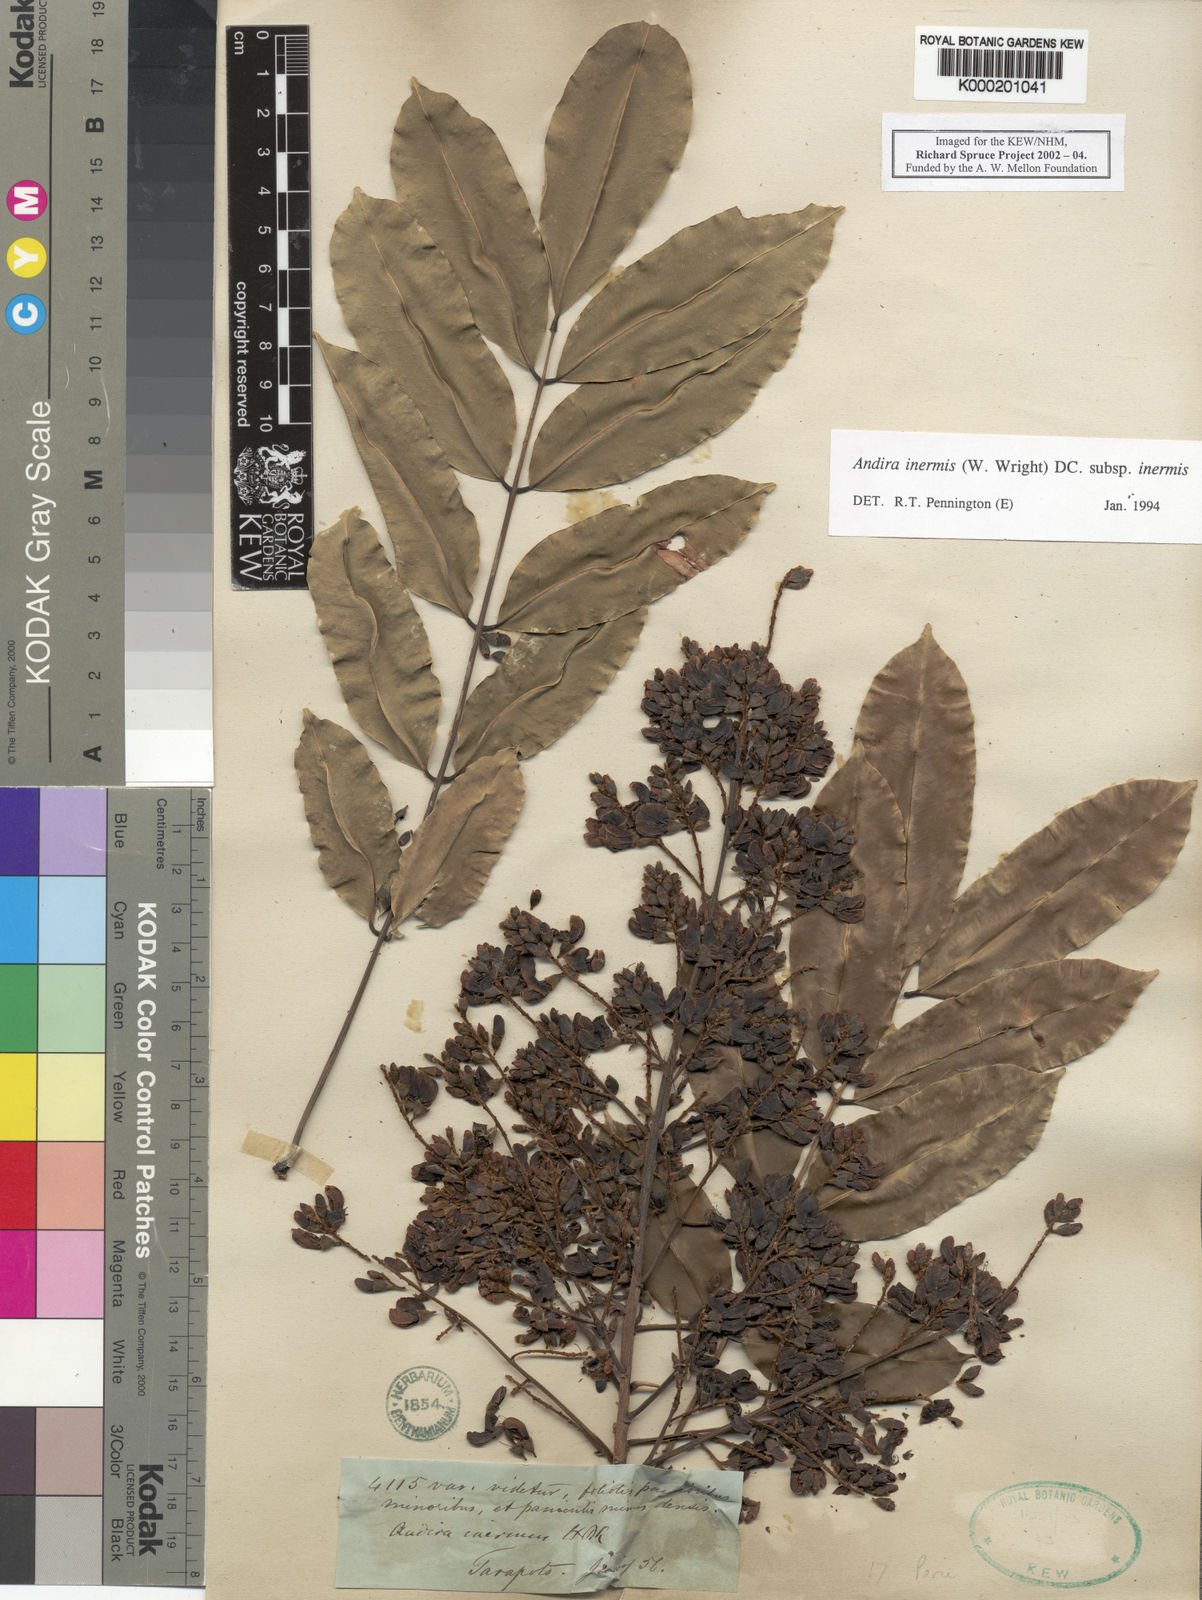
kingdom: Plantae
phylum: Tracheophyta
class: Magnoliopsida
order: Fabales
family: Fabaceae
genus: Andira
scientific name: Andira inermis
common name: Angelin
